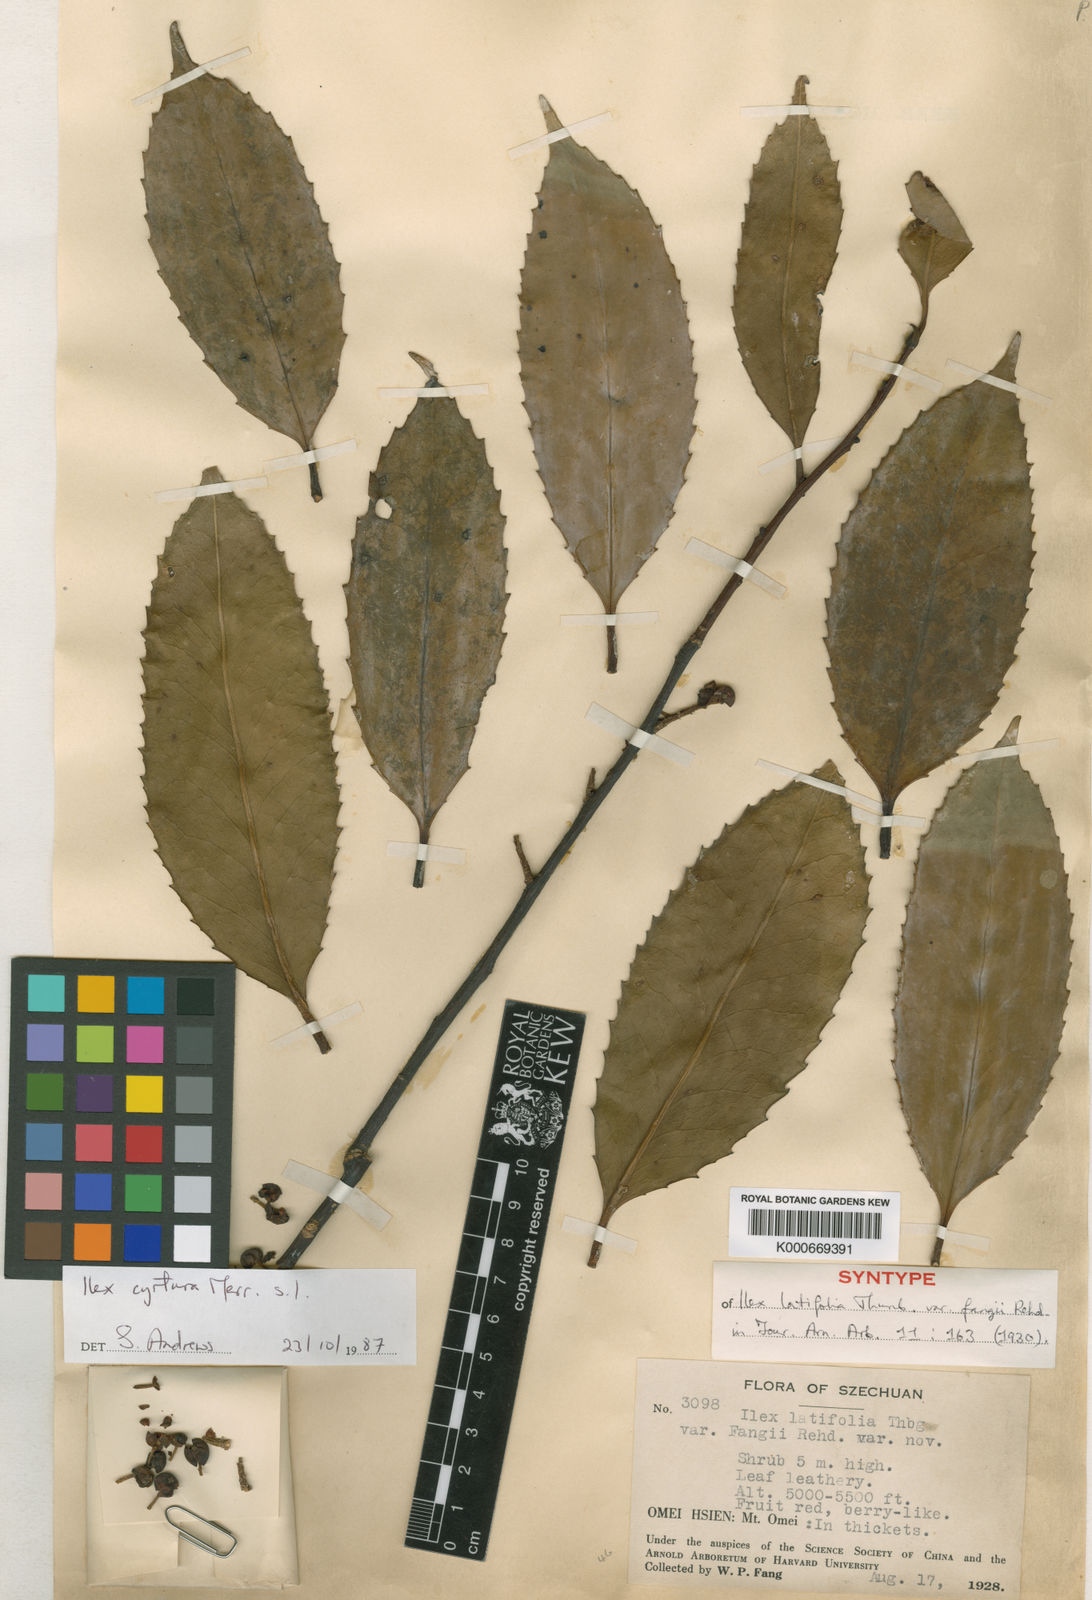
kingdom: Plantae
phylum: Tracheophyta
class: Magnoliopsida
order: Aquifoliales
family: Aquifoliaceae
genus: Ilex
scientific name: Ilex cyrtura
